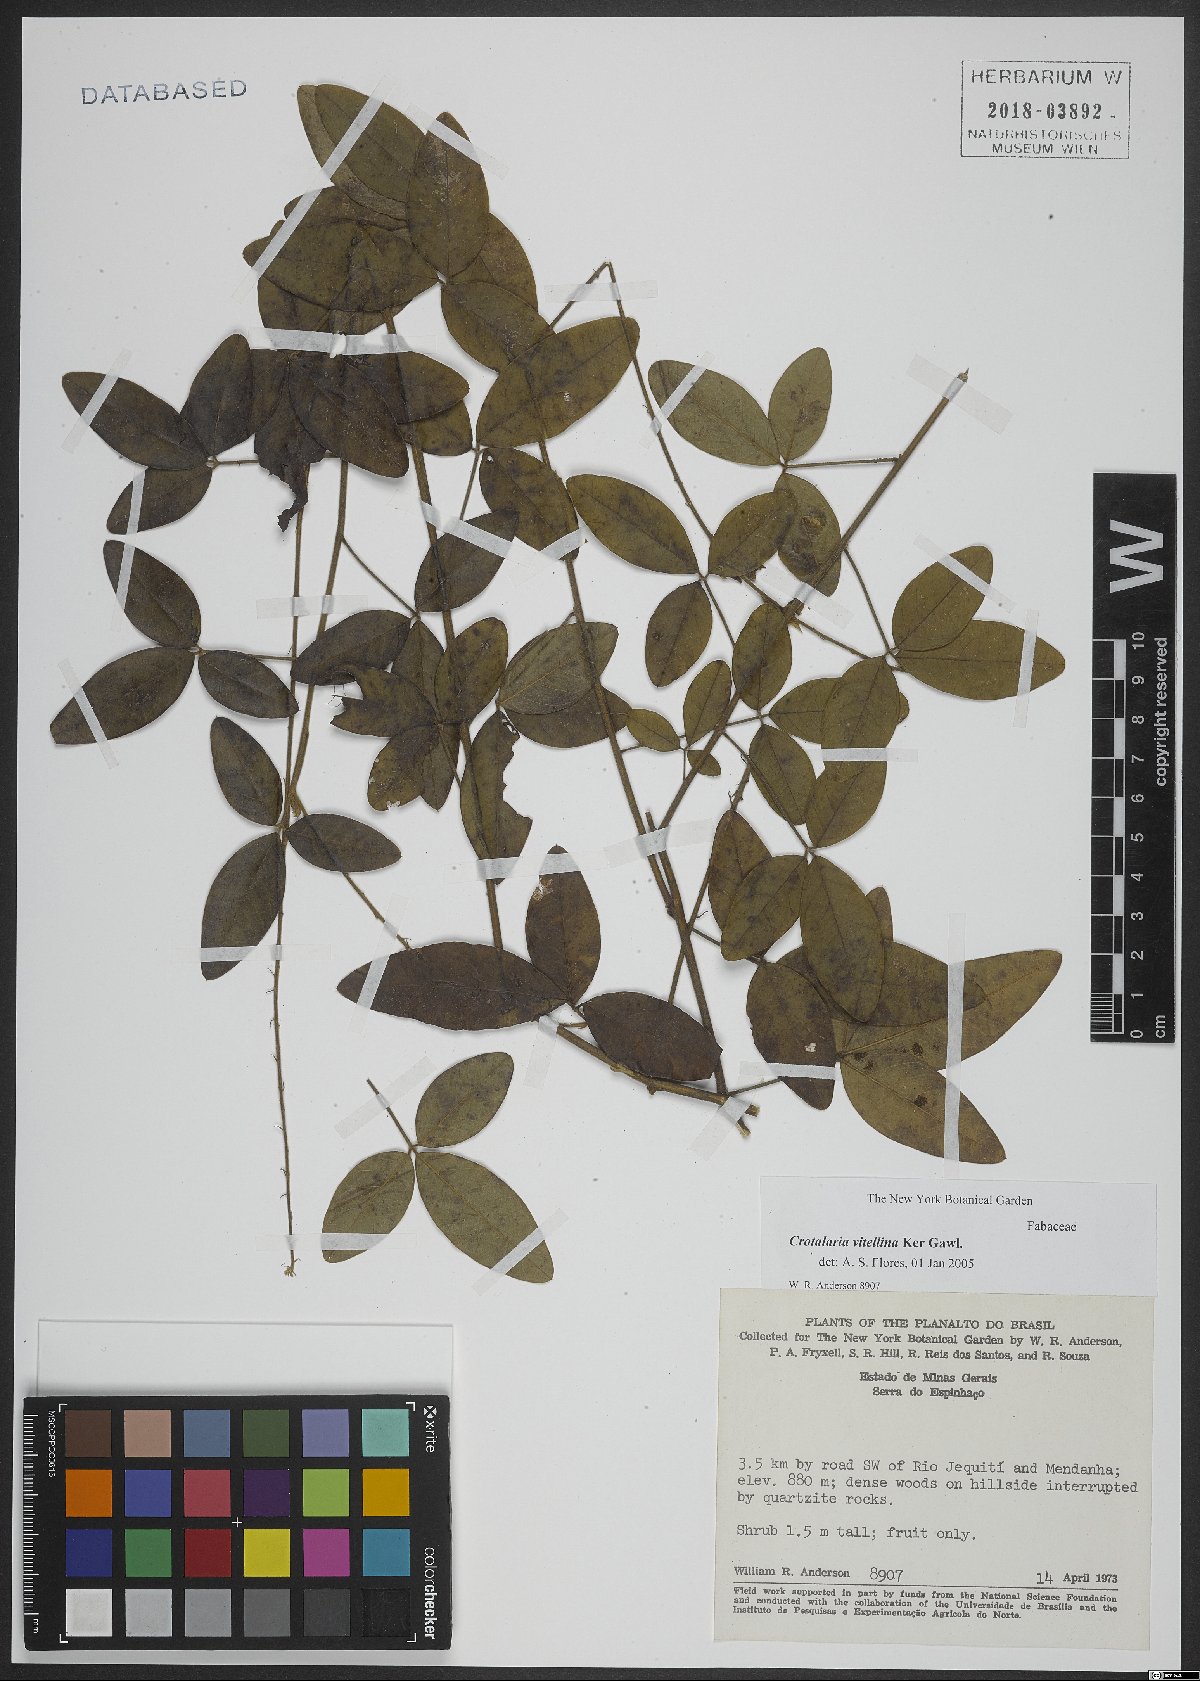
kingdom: Plantae
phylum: Tracheophyta
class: Magnoliopsida
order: Fabales
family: Fabaceae
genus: Crotalaria
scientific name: Crotalaria vitellina
